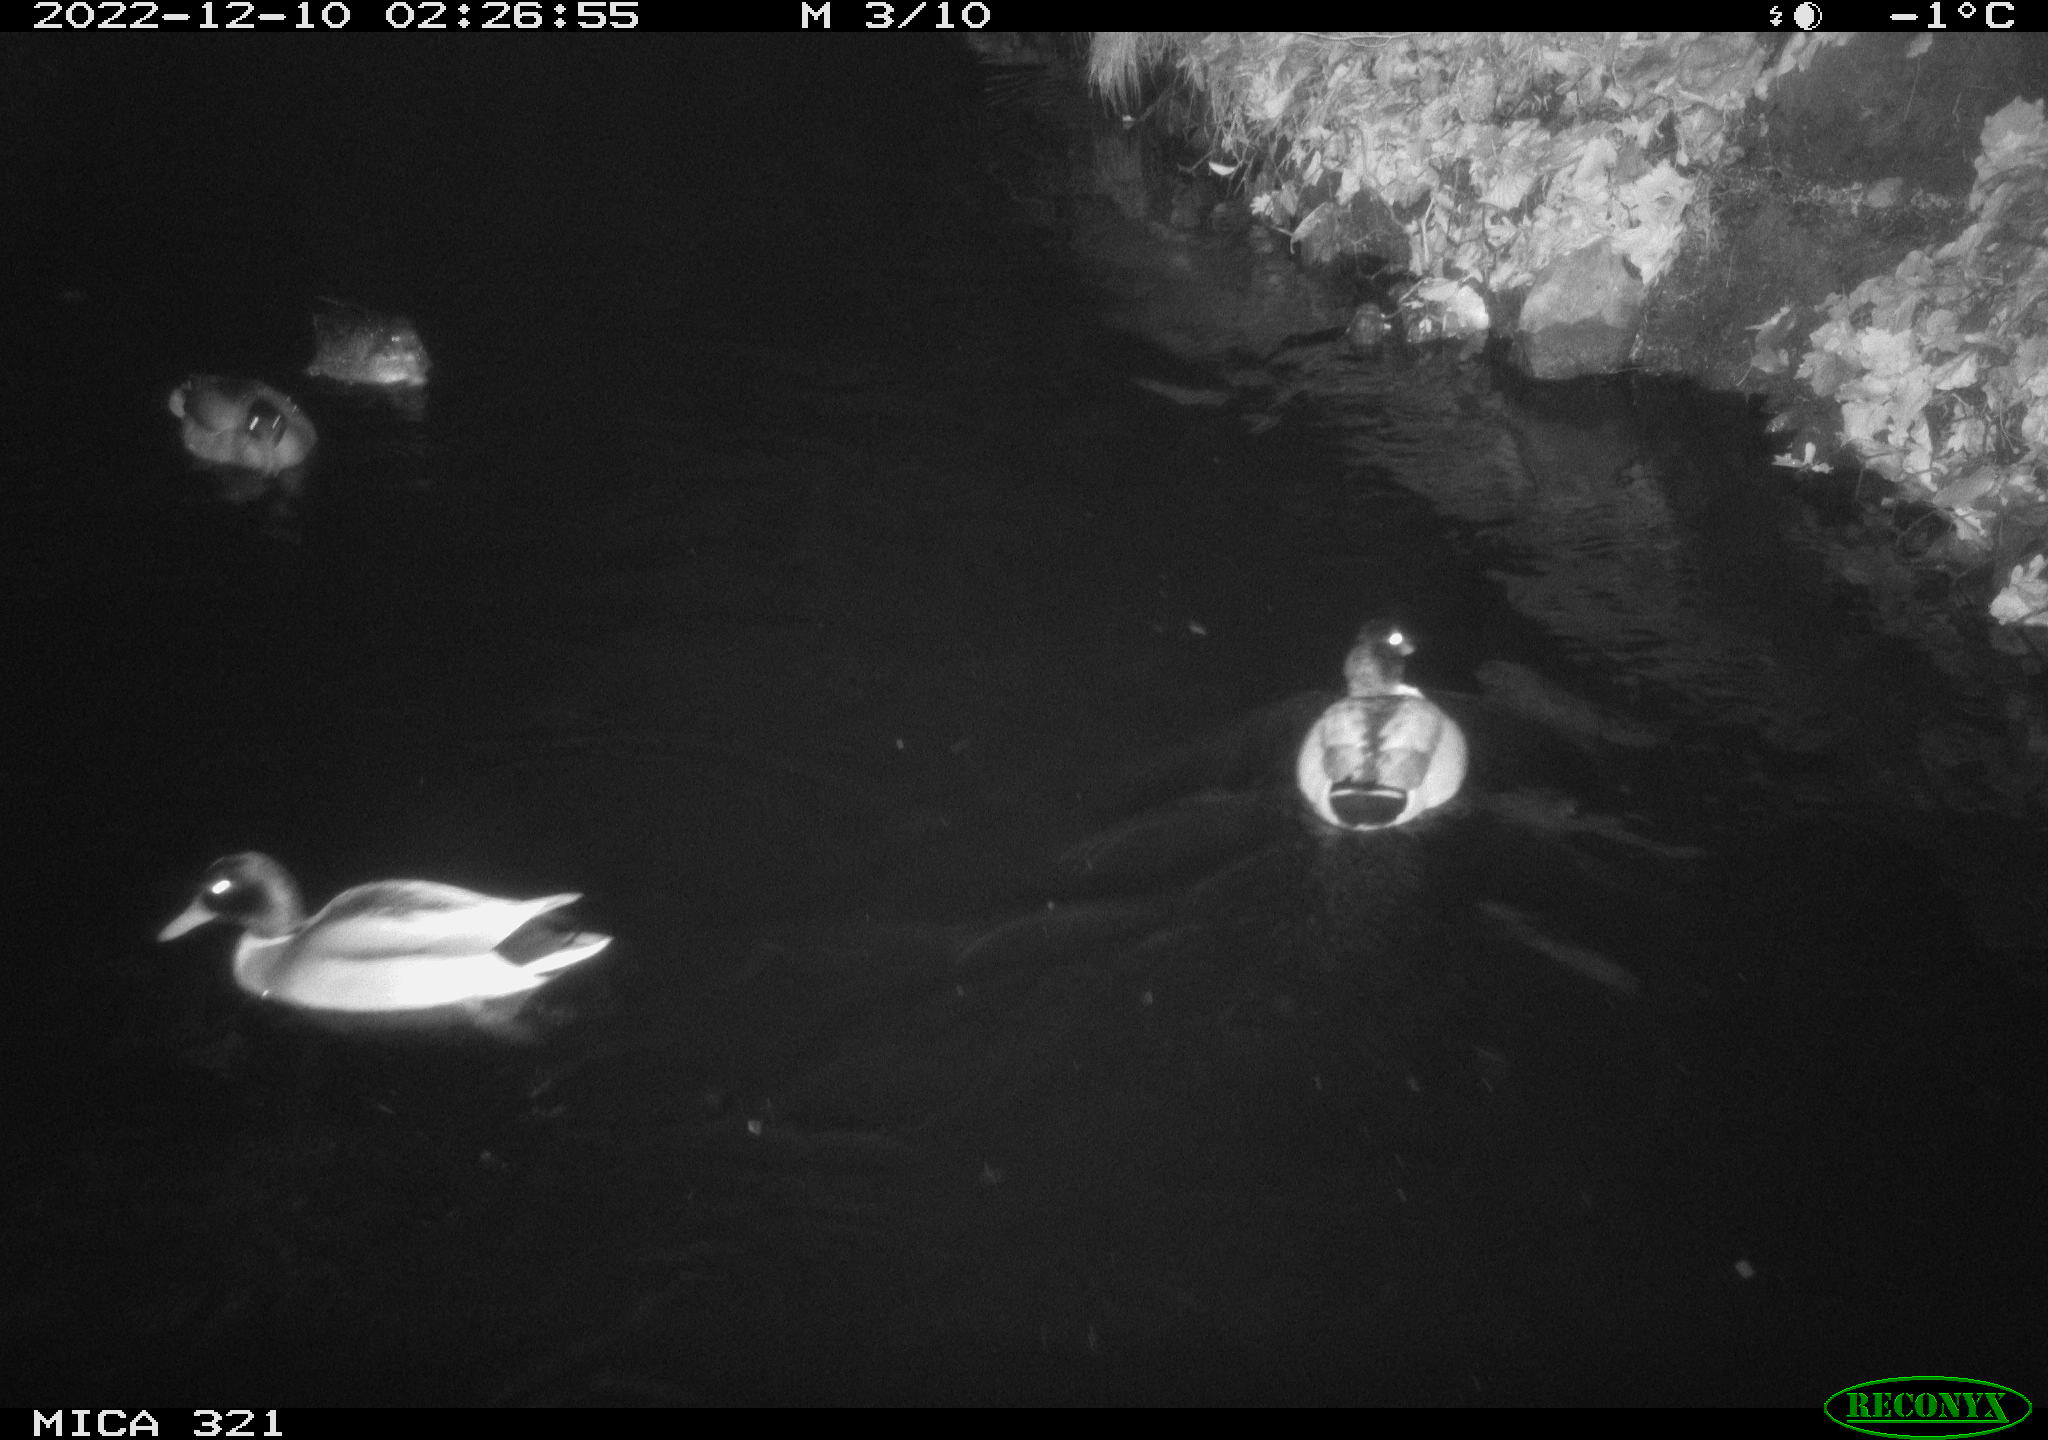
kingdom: Animalia
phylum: Chordata
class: Aves
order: Anseriformes
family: Anatidae
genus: Anas
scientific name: Anas
